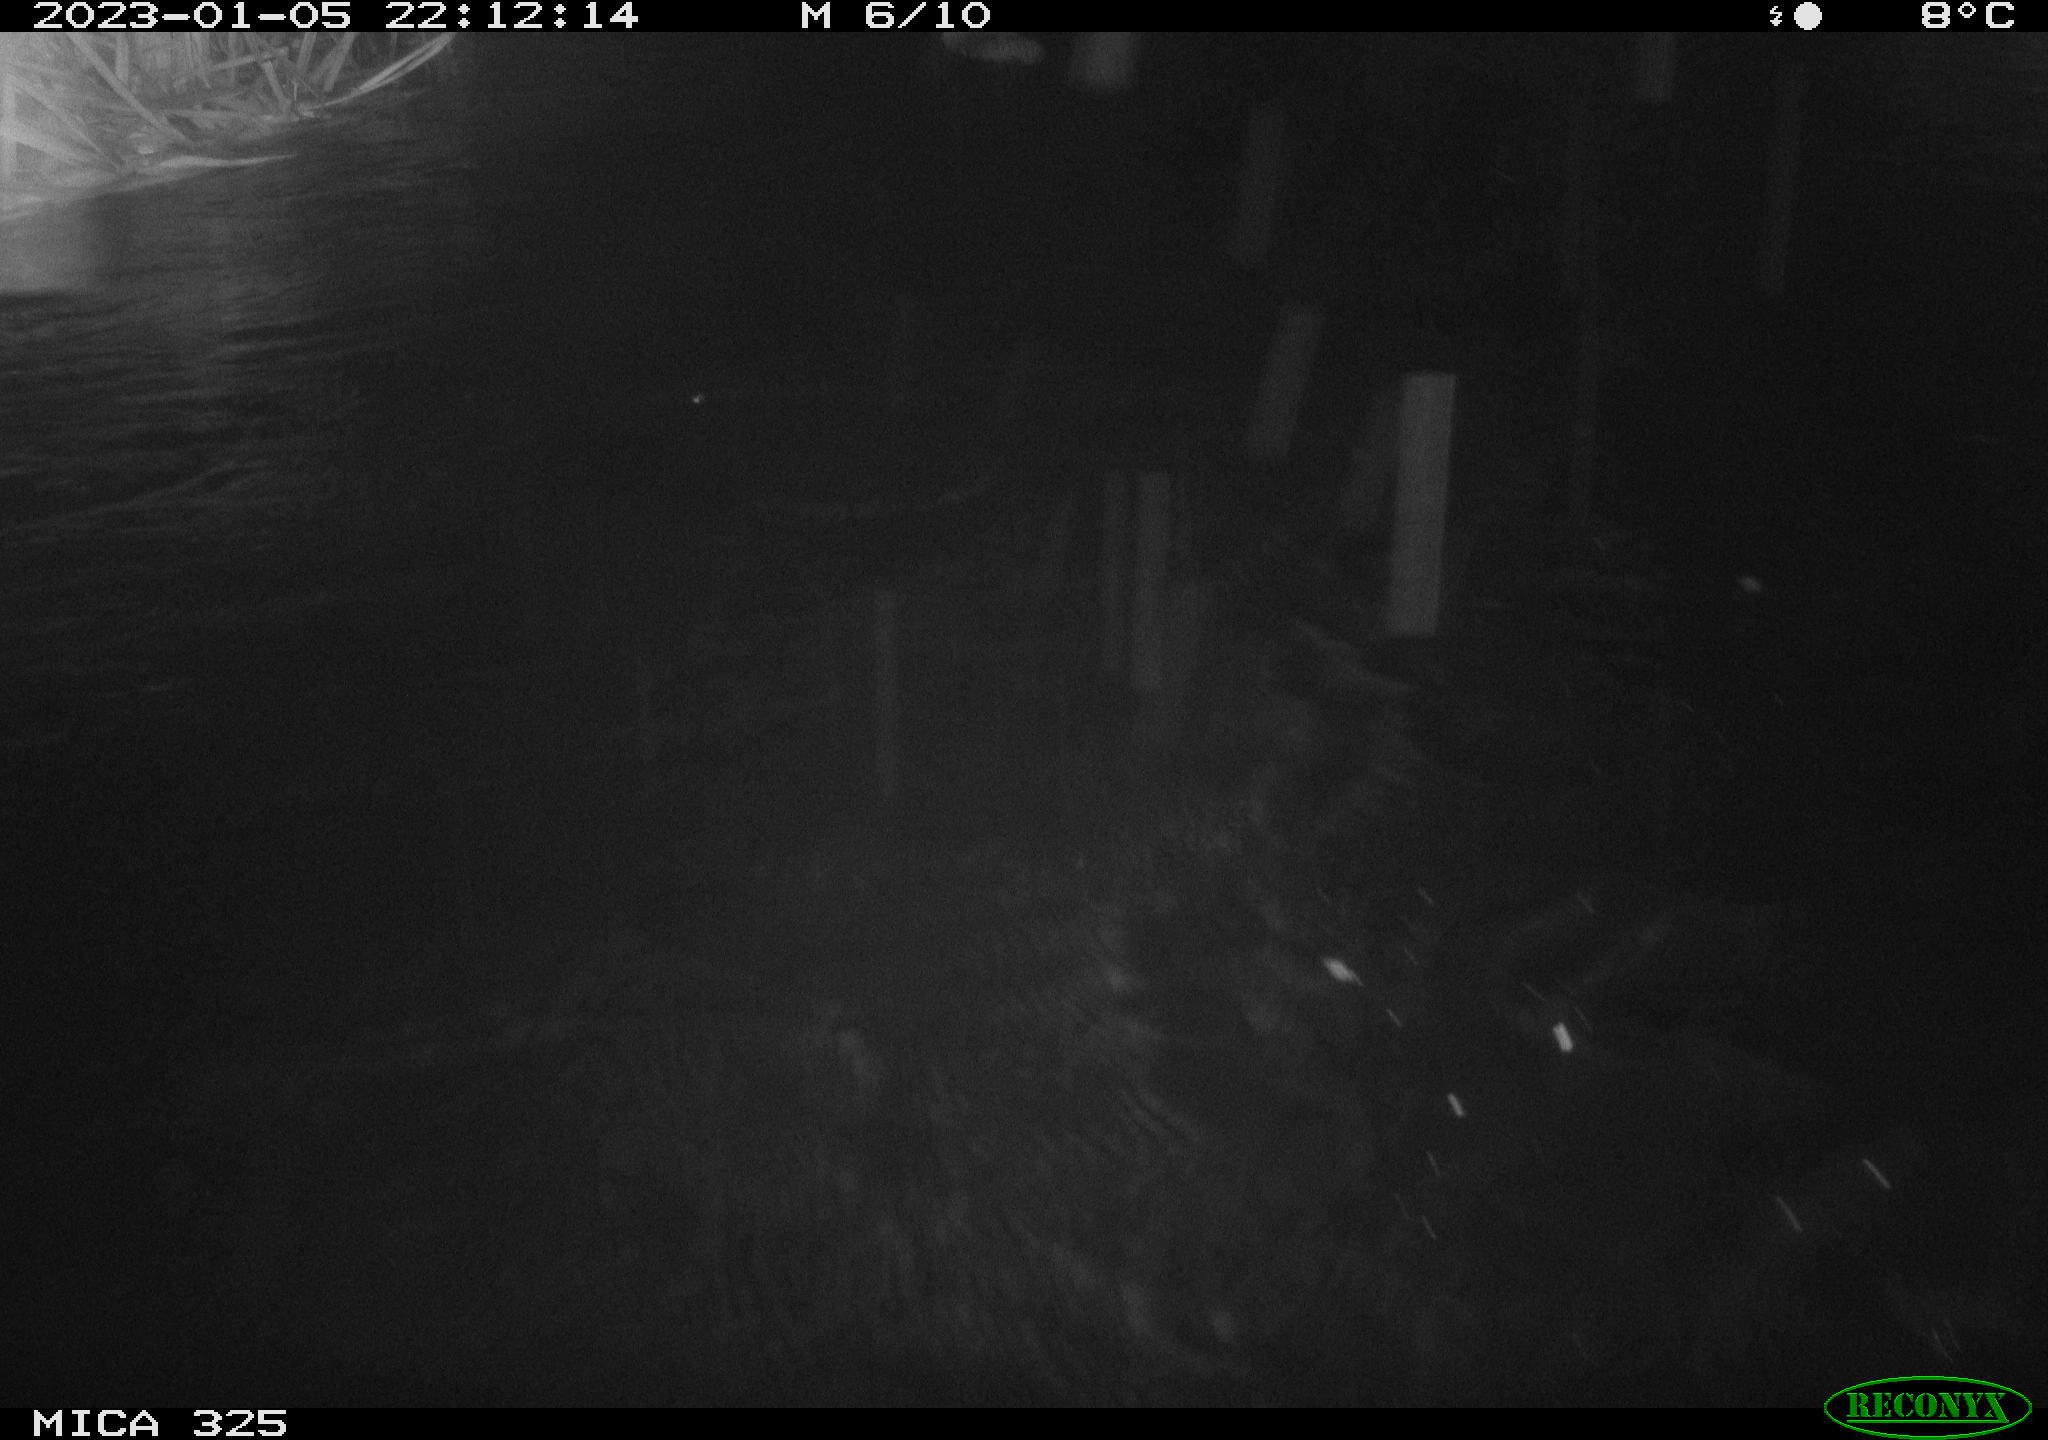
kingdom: Animalia
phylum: Chordata
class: Mammalia
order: Rodentia
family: Myocastoridae
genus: Myocastor
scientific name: Myocastor coypus
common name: Coypu
